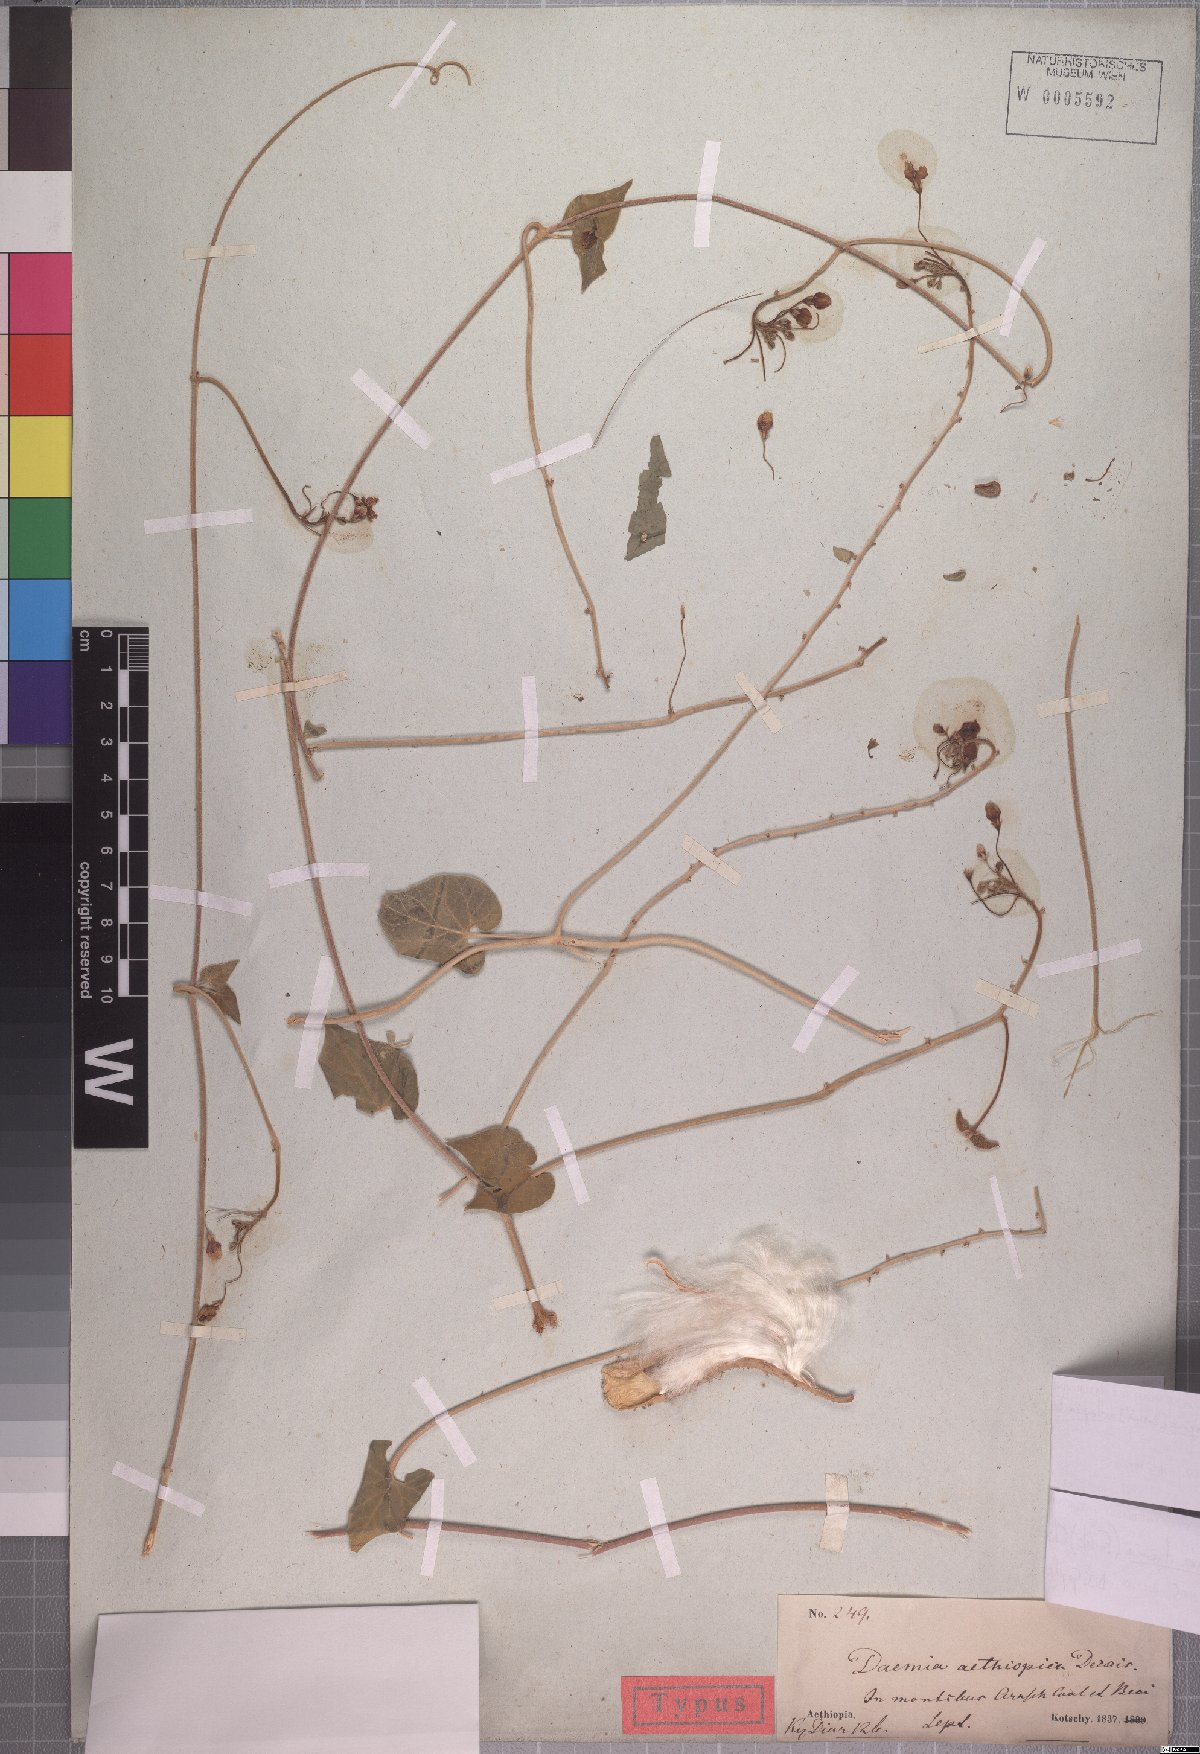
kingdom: Plantae
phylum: Tracheophyta
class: Magnoliopsida
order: Gentianales
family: Apocynaceae
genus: Pergularia
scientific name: Pergularia daemia
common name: Trellis-vine
